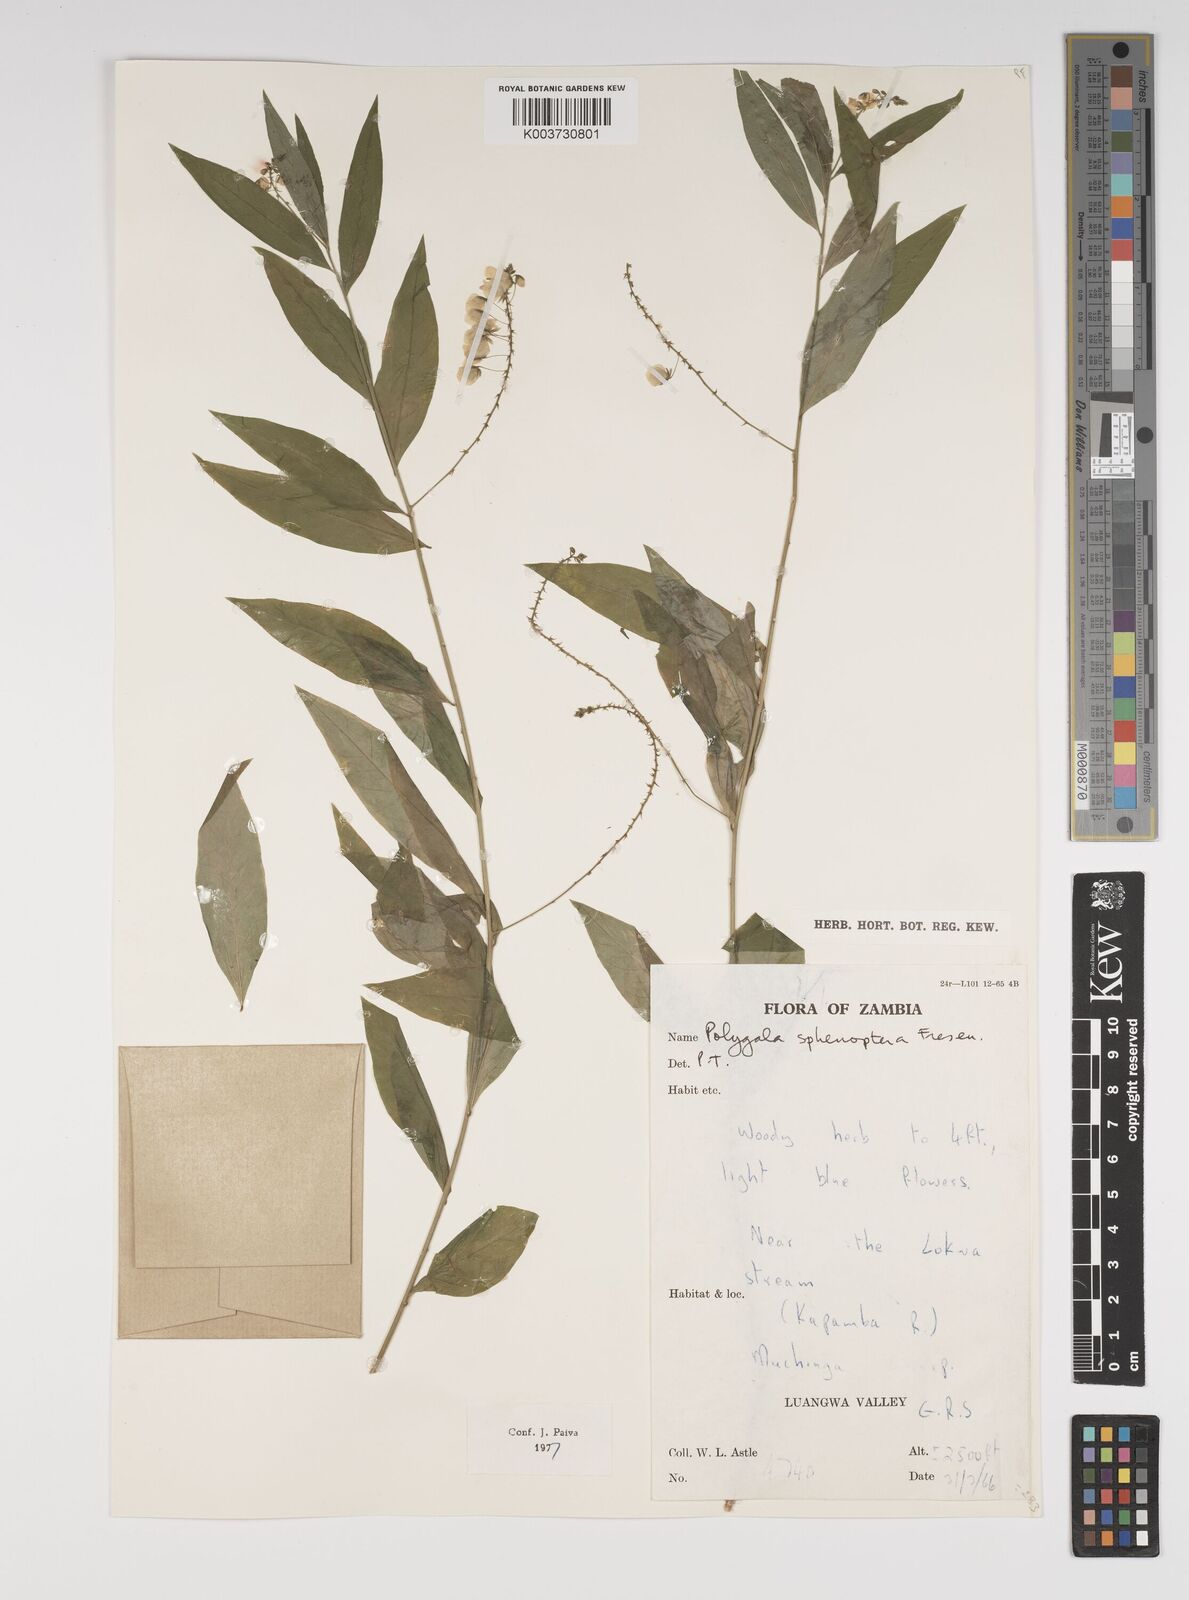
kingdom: Plantae
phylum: Tracheophyta
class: Magnoliopsida
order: Fabales
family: Polygalaceae
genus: Polygala
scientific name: Polygala sphenoptera
